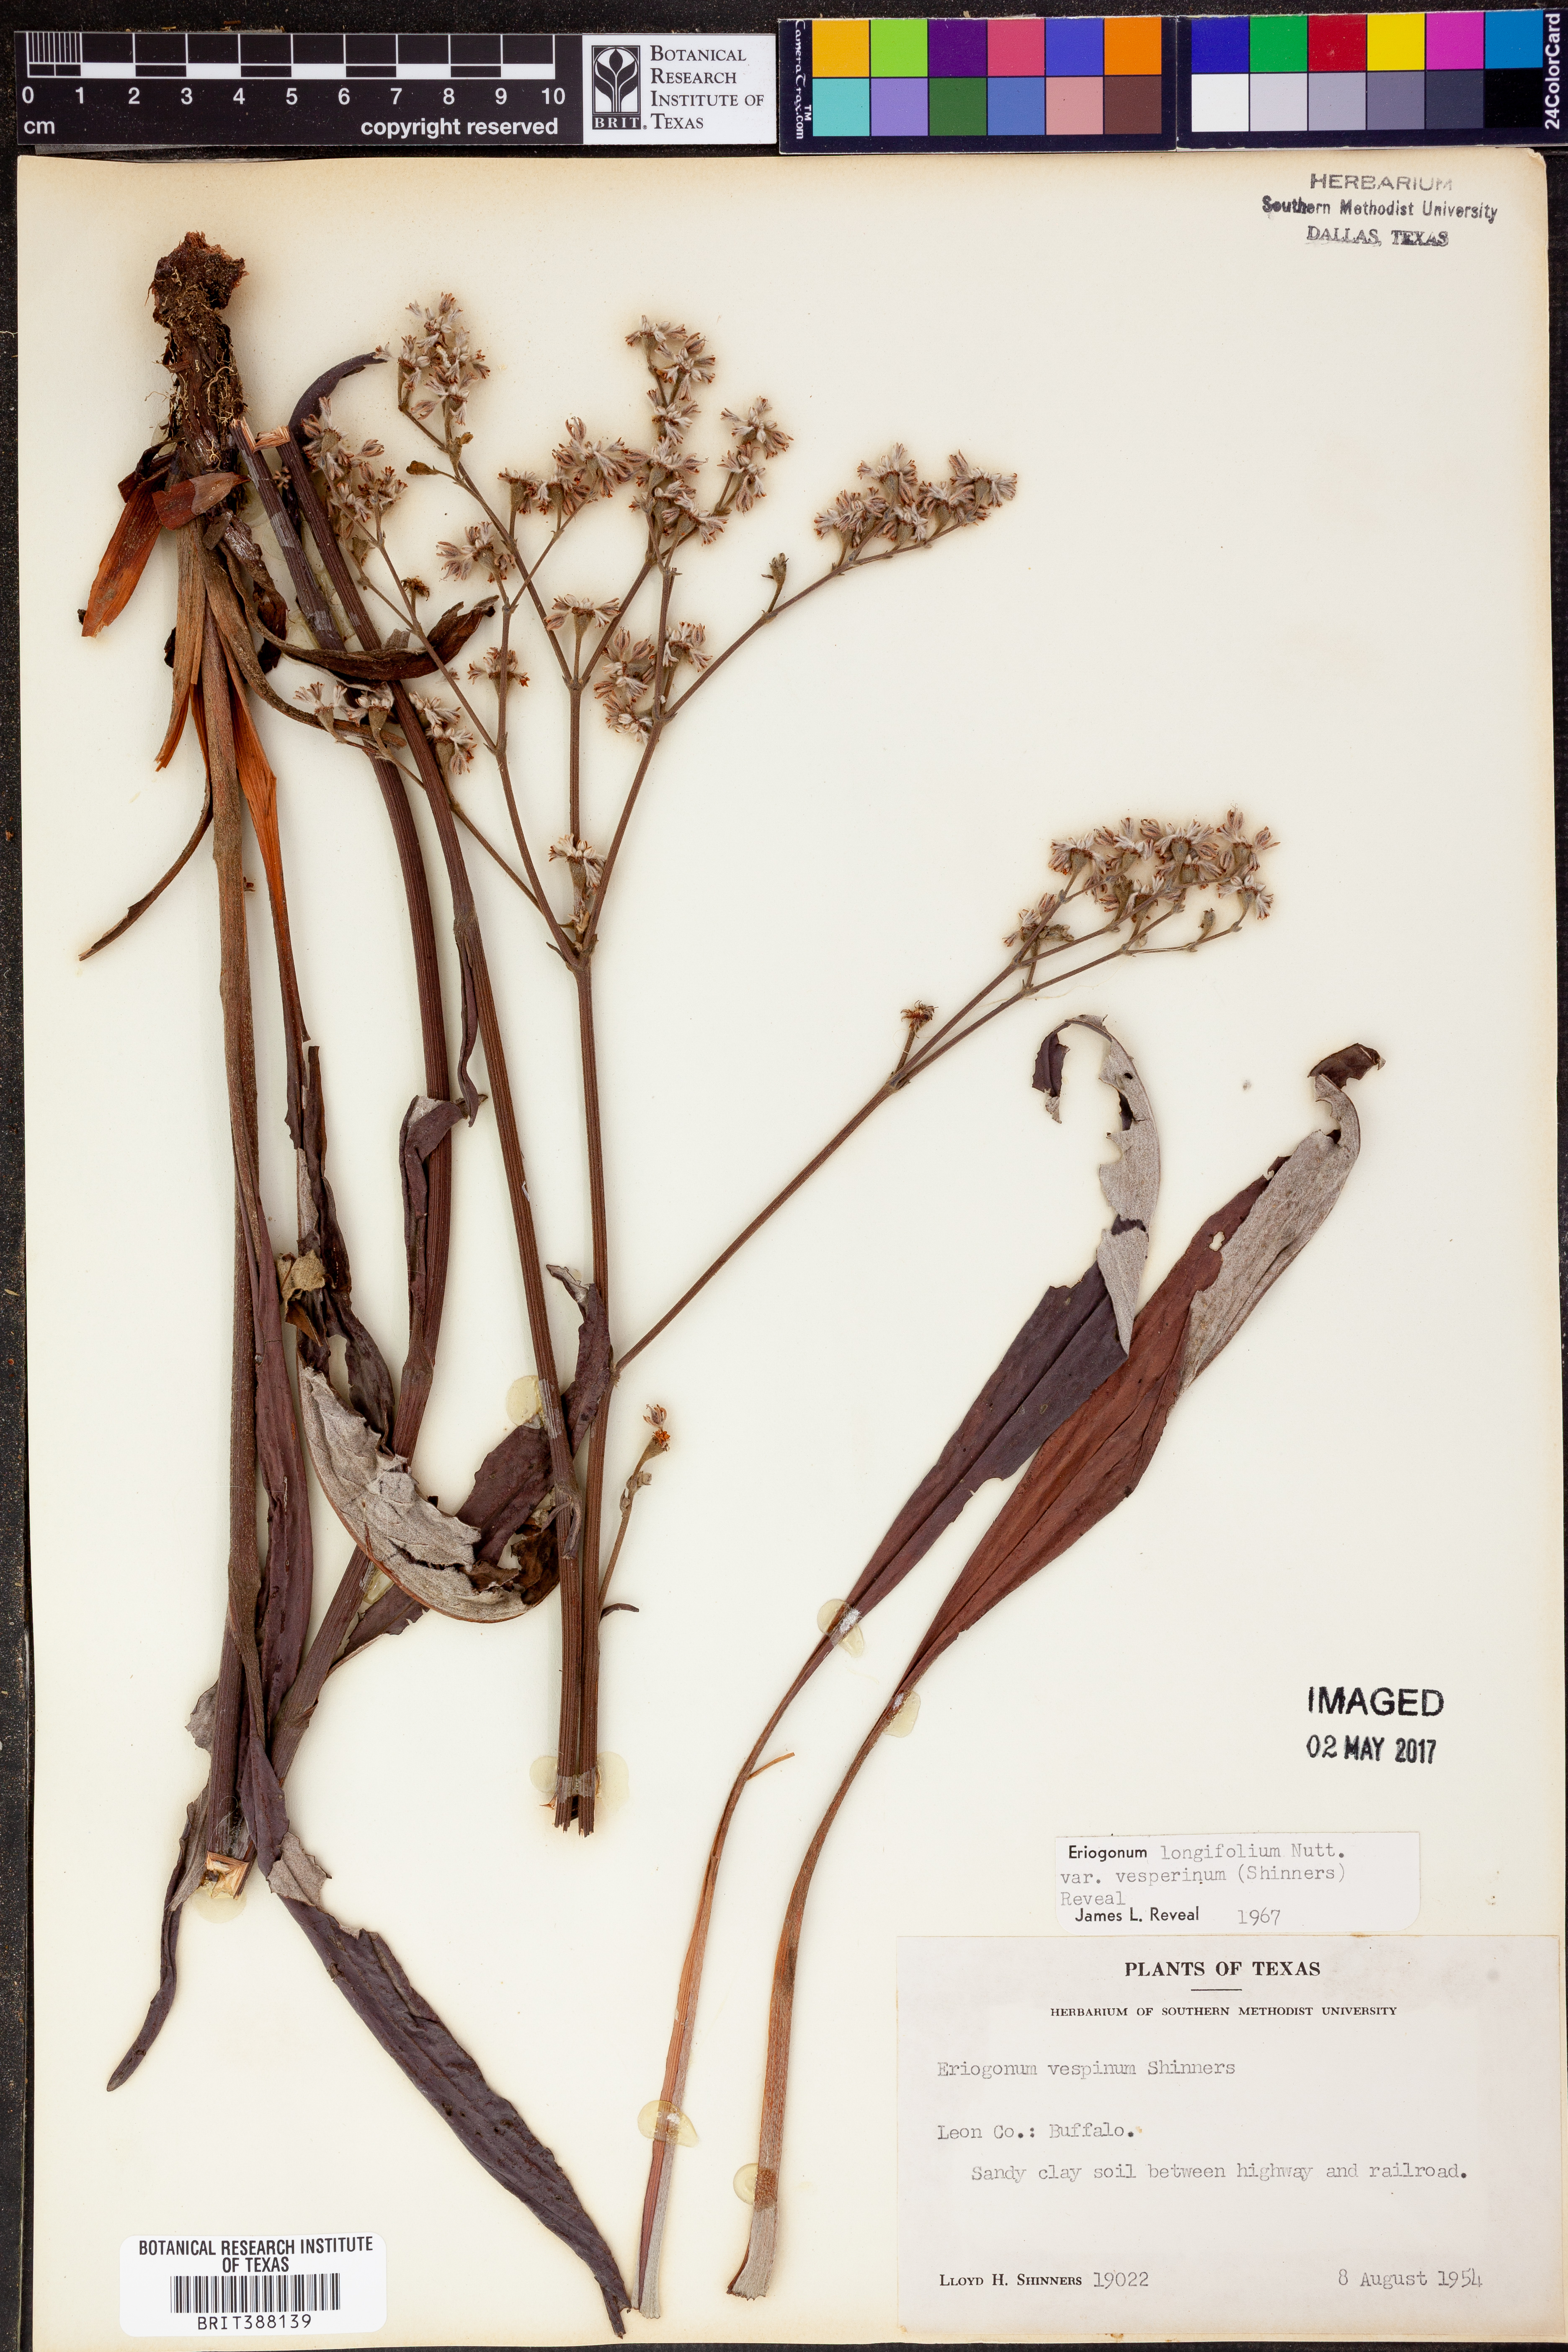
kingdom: Plantae
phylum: Tracheophyta
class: Magnoliopsida
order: Caryophyllales
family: Polygonaceae
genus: Eriogonum
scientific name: Eriogonum longifolium
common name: Longleaf wild buckwheat
